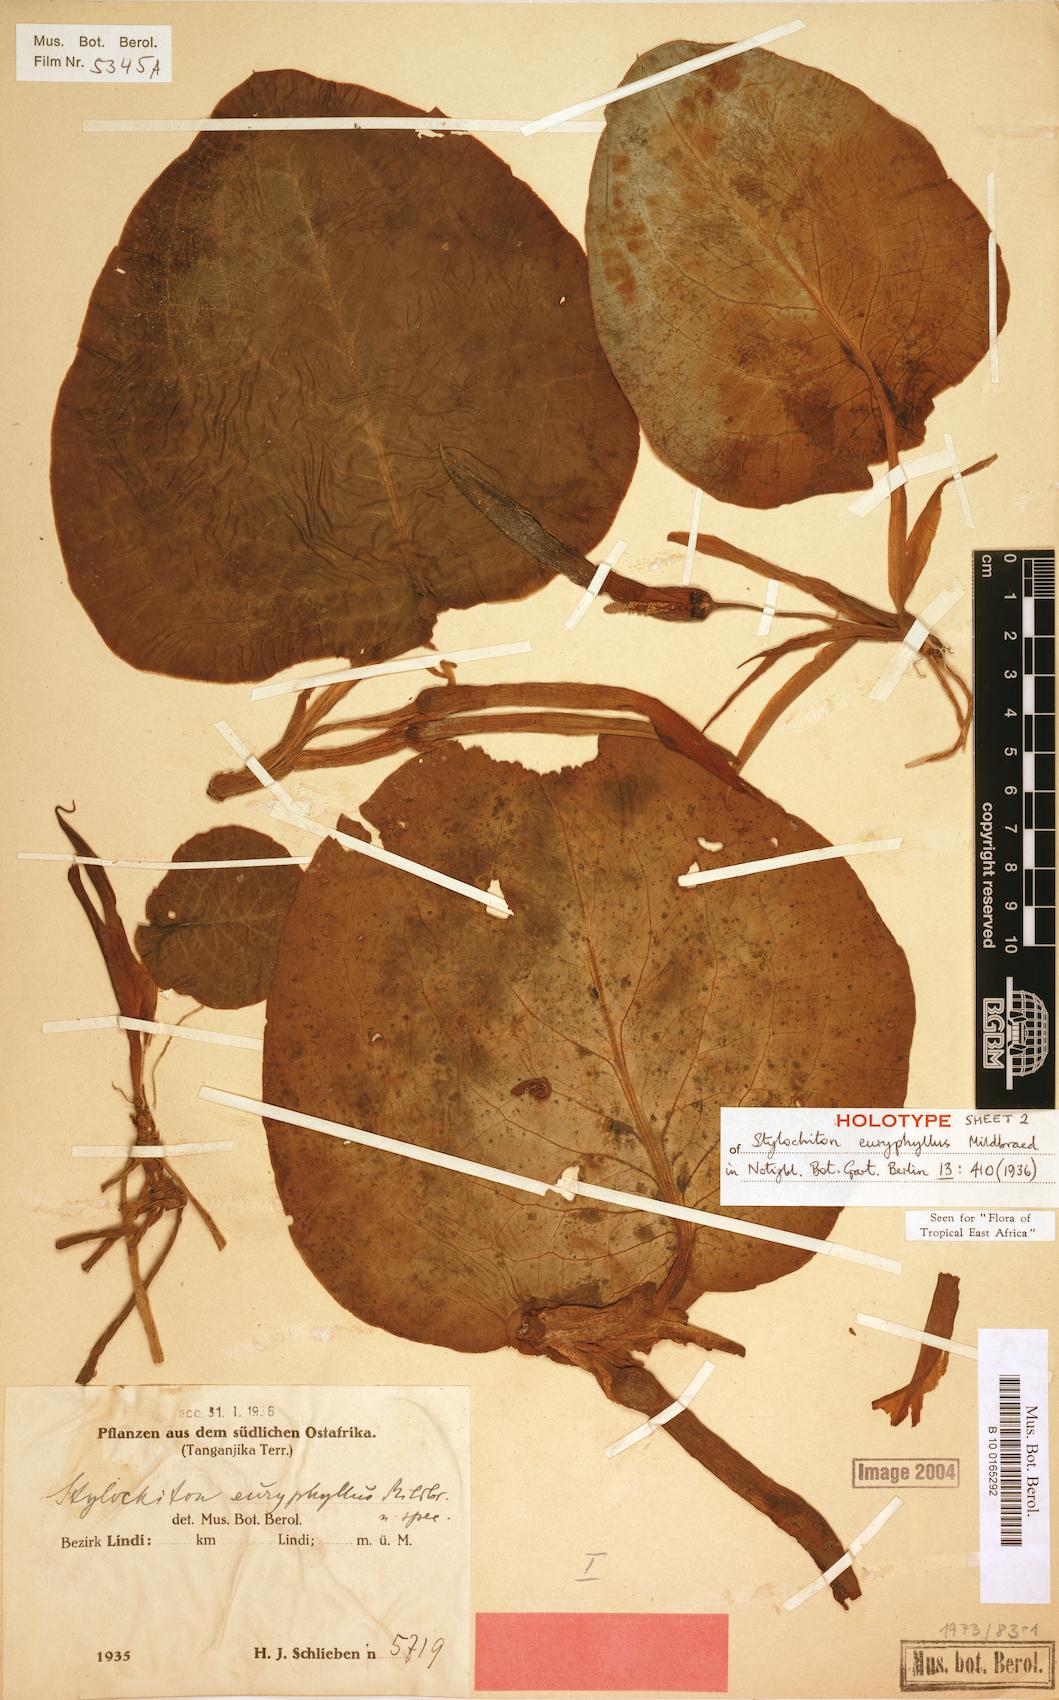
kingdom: Plantae
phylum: Tracheophyta
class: Liliopsida
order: Alismatales
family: Araceae
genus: Stylochaeton
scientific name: Stylochaeton euryphyllum
